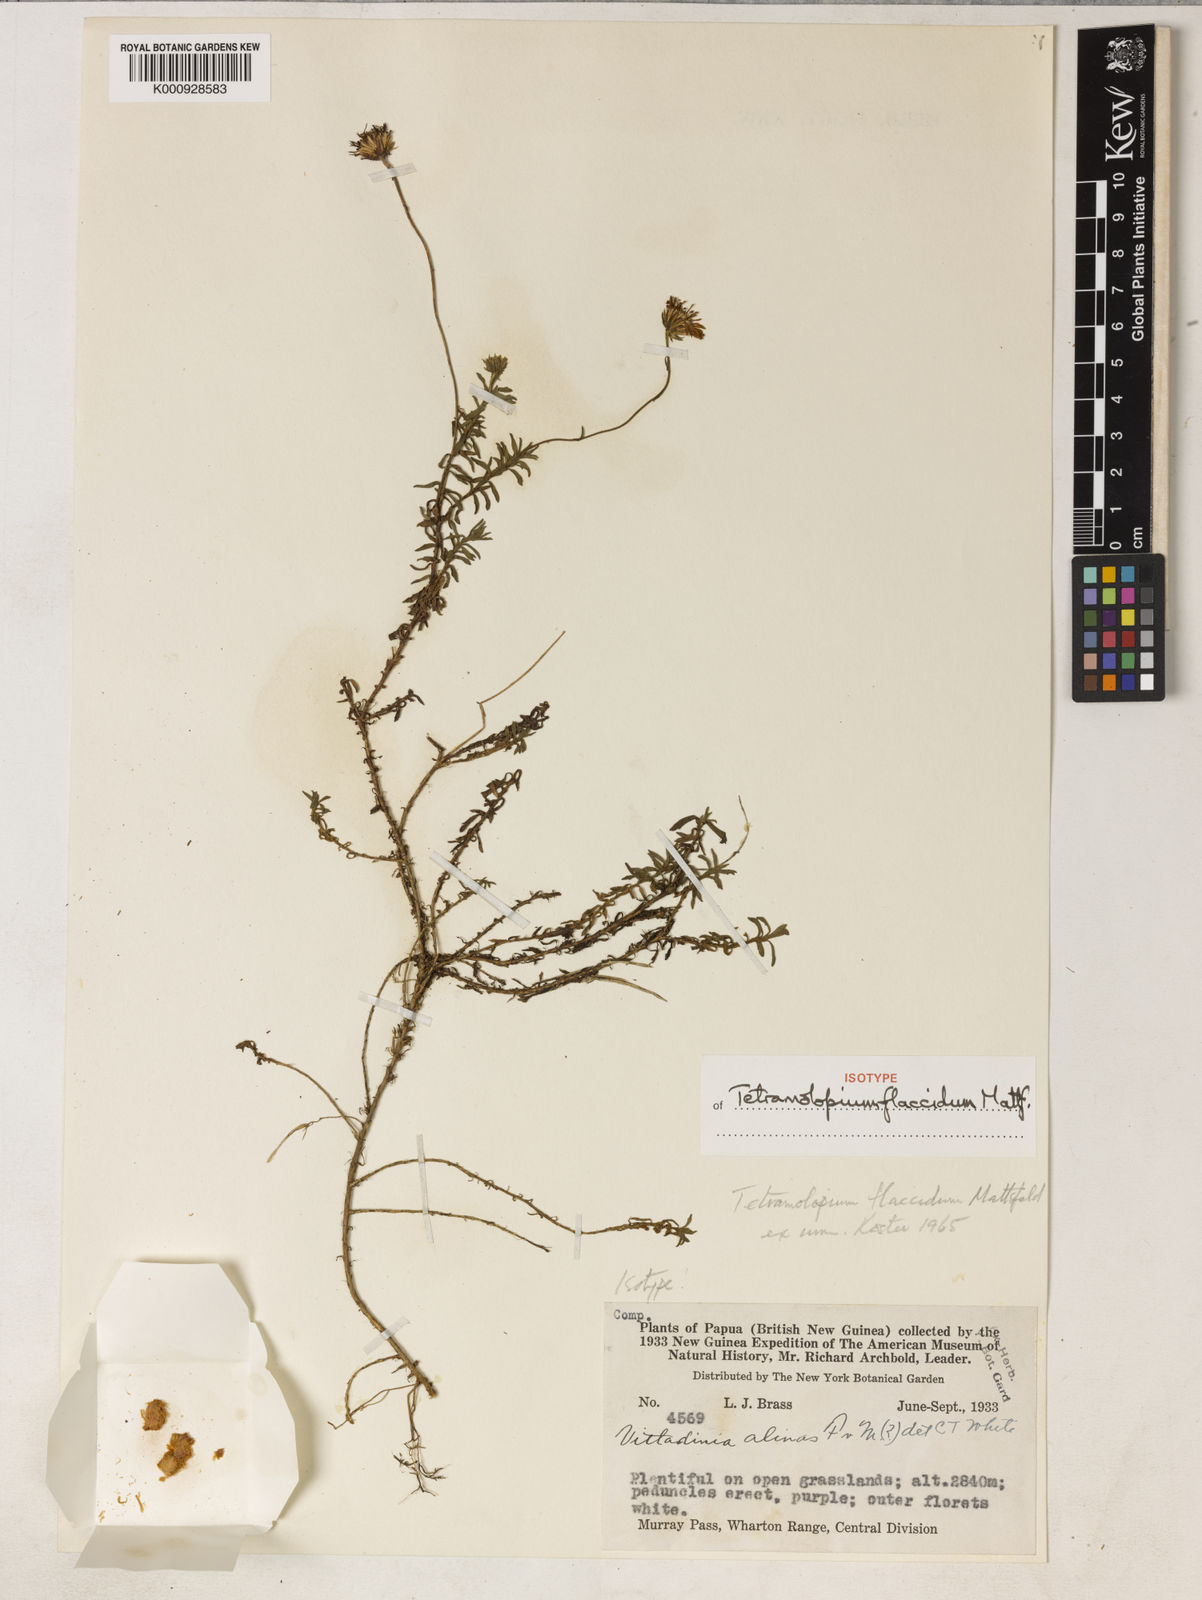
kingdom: Plantae
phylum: Tracheophyta
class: Magnoliopsida
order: Asterales
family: Asteraceae
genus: Tetramolopium
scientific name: Tetramolopium flaccidum
